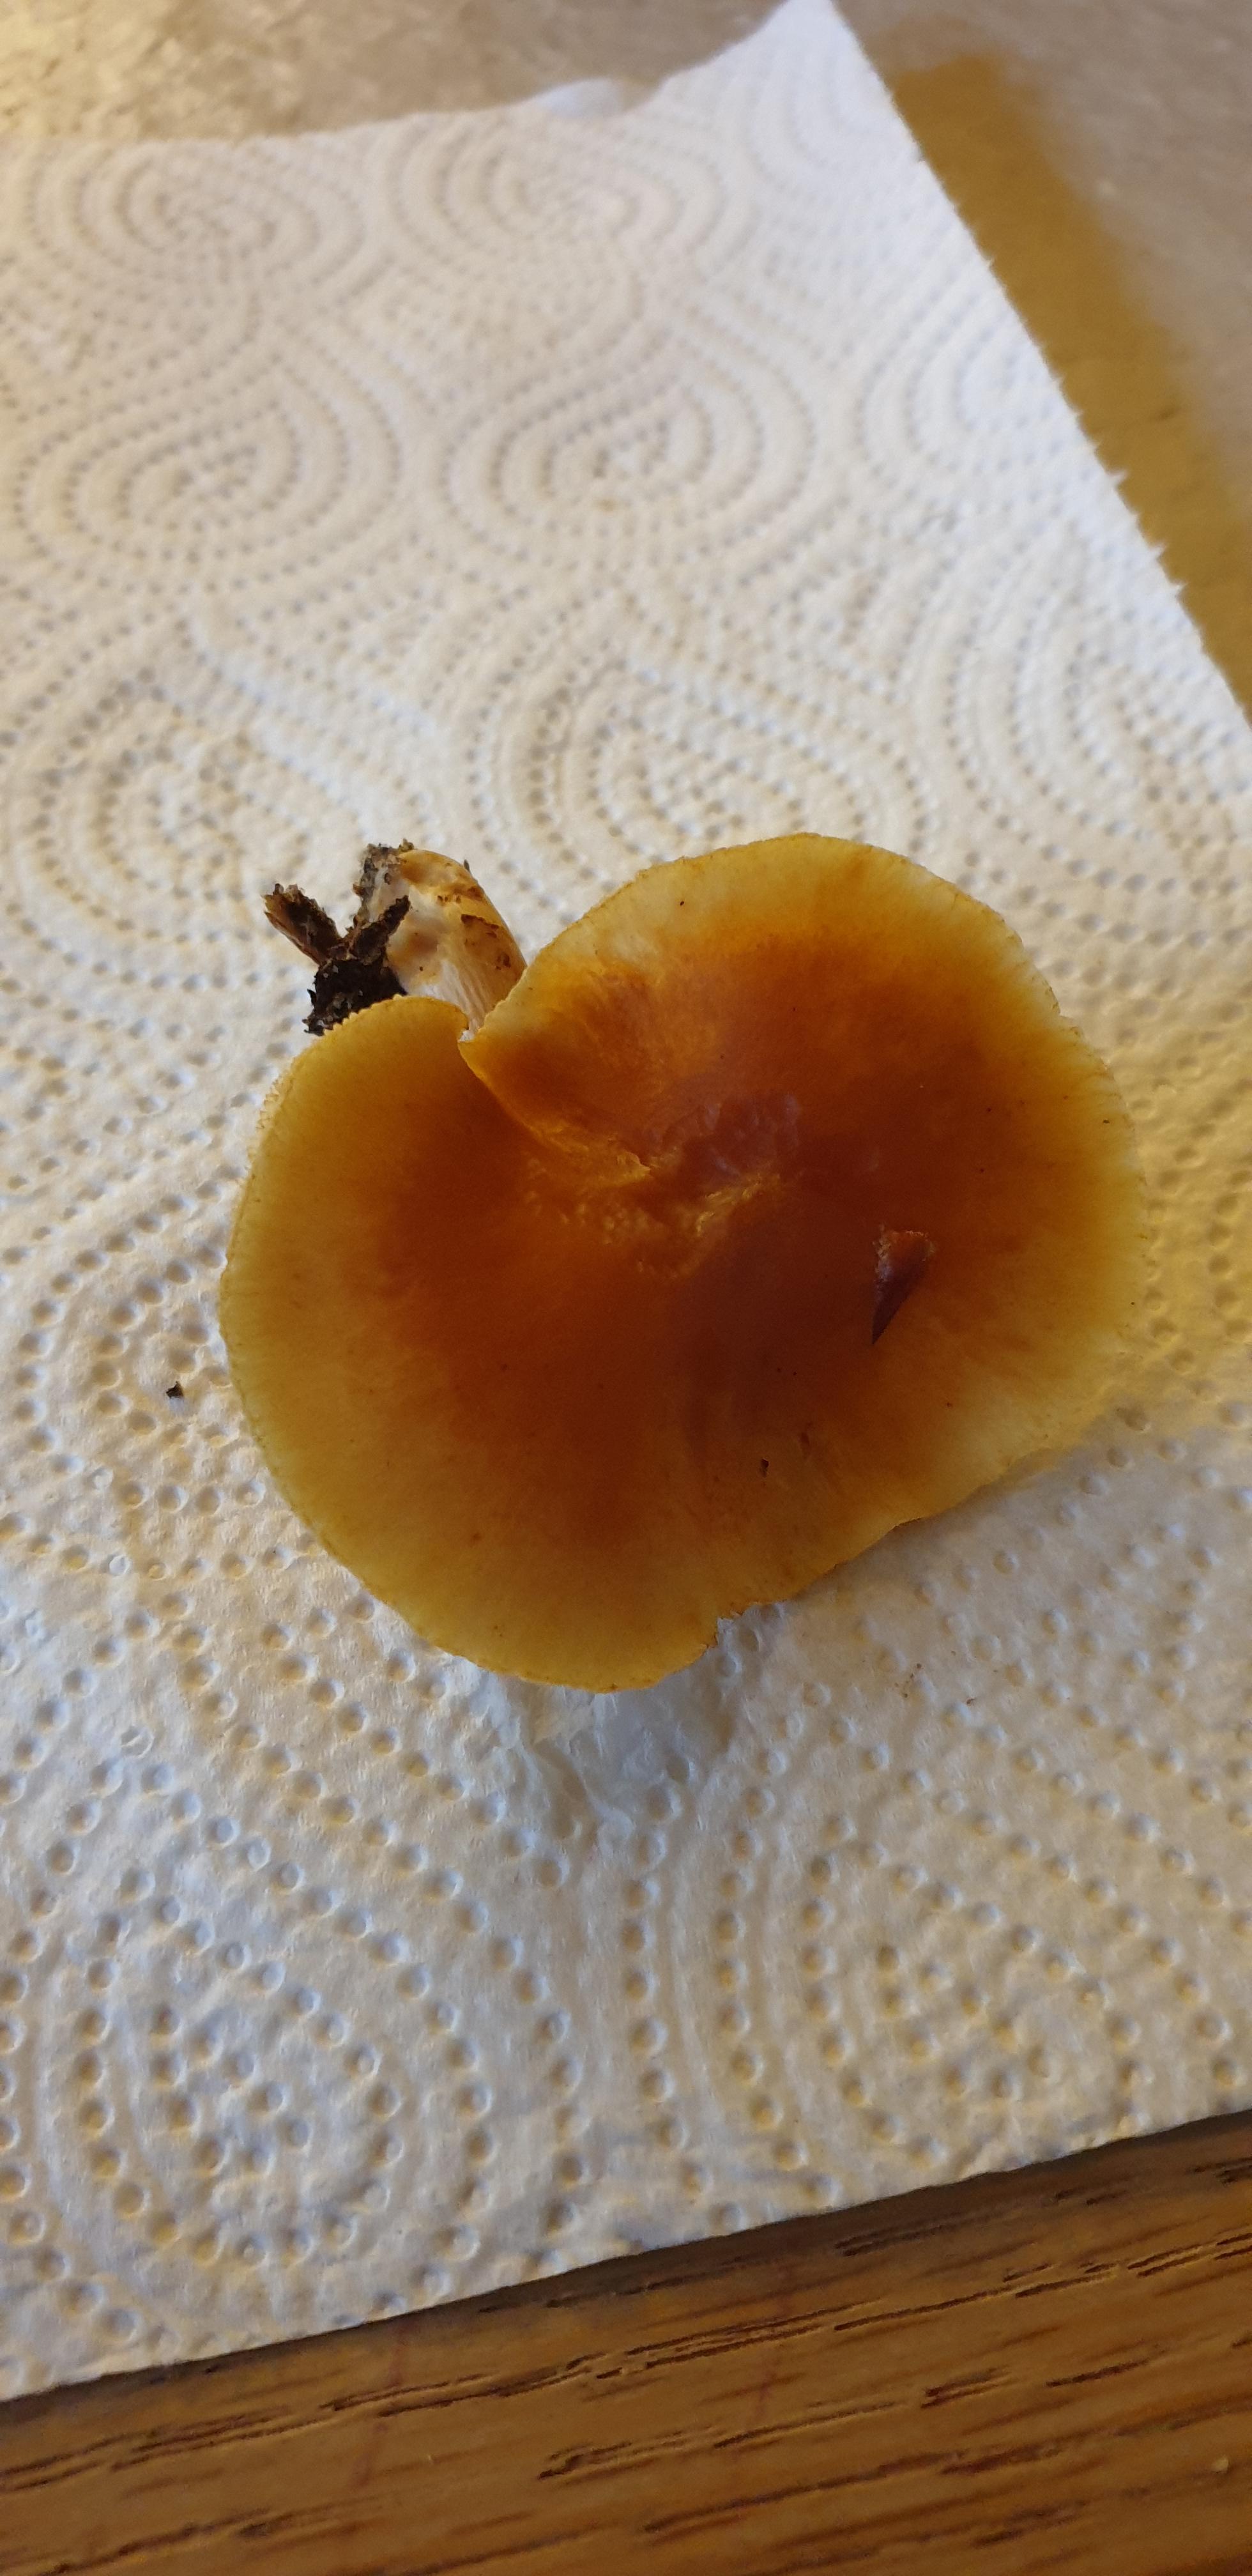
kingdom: Fungi
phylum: Basidiomycota
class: Agaricomycetes
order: Agaricales
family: Hymenogastraceae
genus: Gymnopilus
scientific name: Gymnopilus penetrans
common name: plettet flammehat
